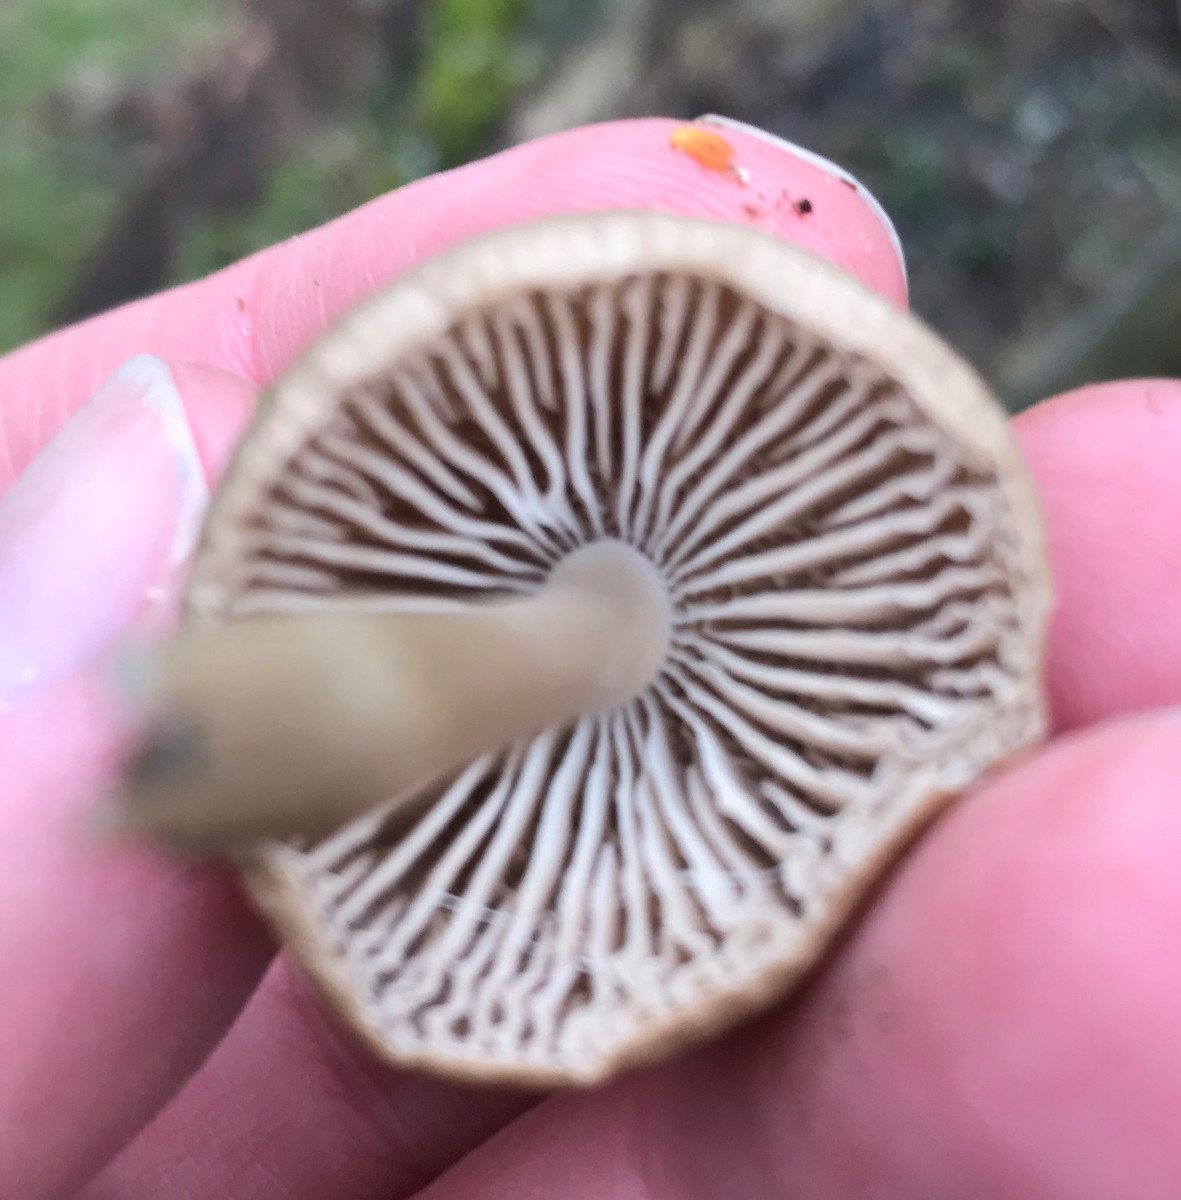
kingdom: Fungi
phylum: Basidiomycota
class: Agaricomycetes
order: Agaricales
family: Mycenaceae
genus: Mycena
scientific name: Mycena galericulata
